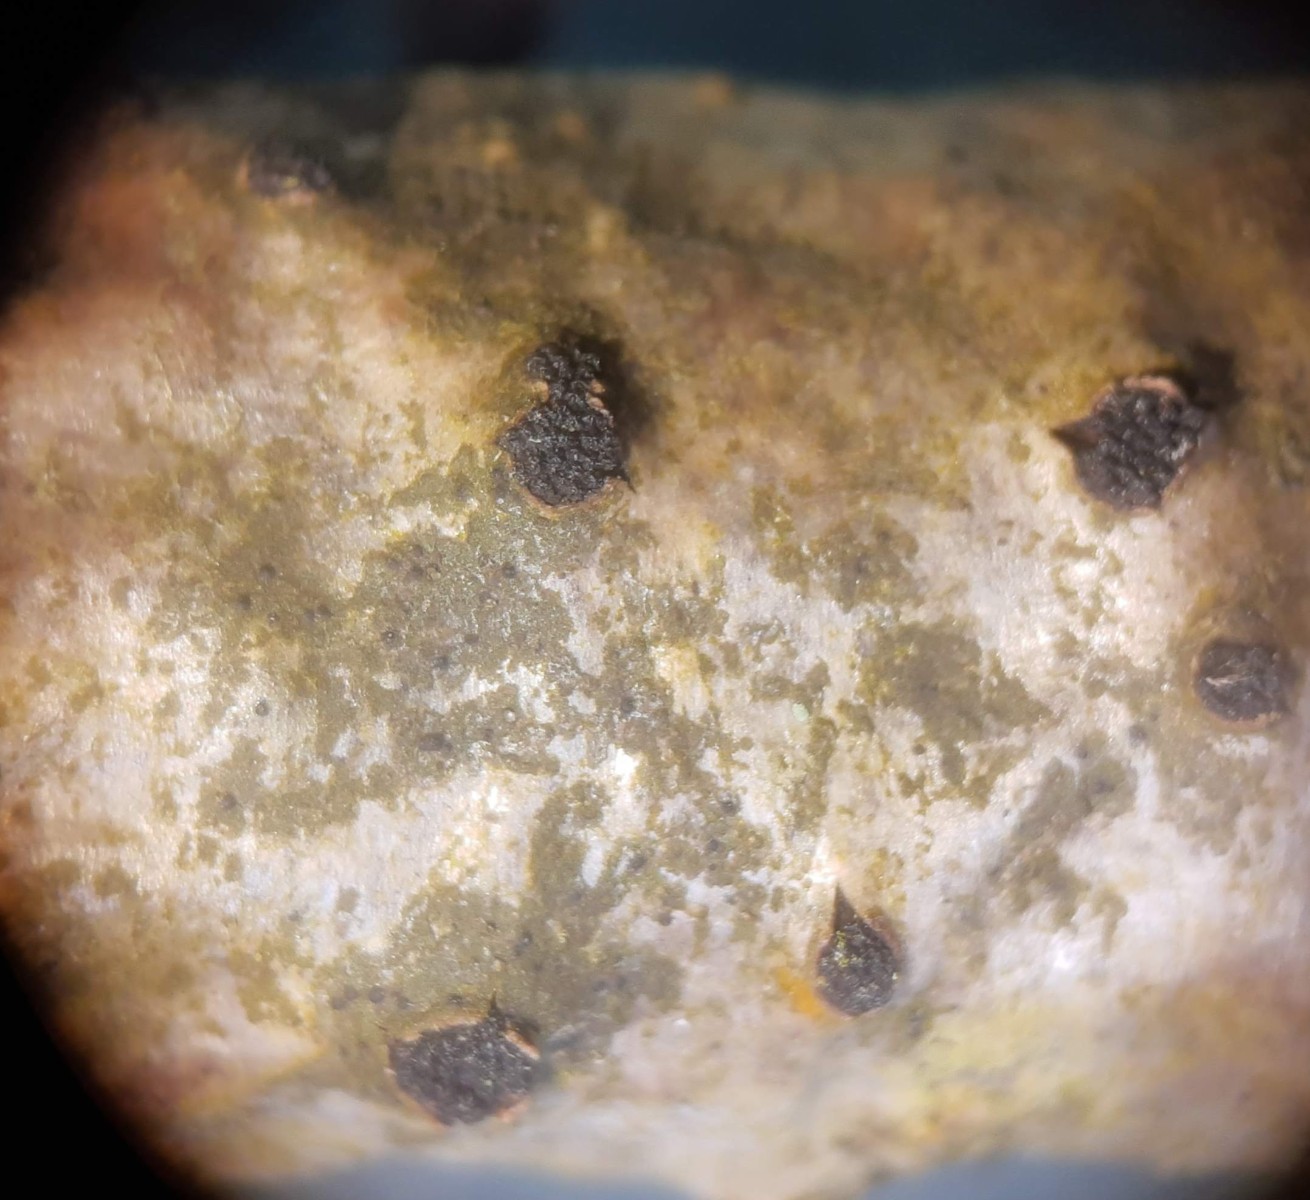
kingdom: Fungi
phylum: Ascomycota
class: Sordariomycetes
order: Xylariales
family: Diatrypaceae
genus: Eutypella
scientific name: Eutypella sorbi
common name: rønne-kulskorpe
